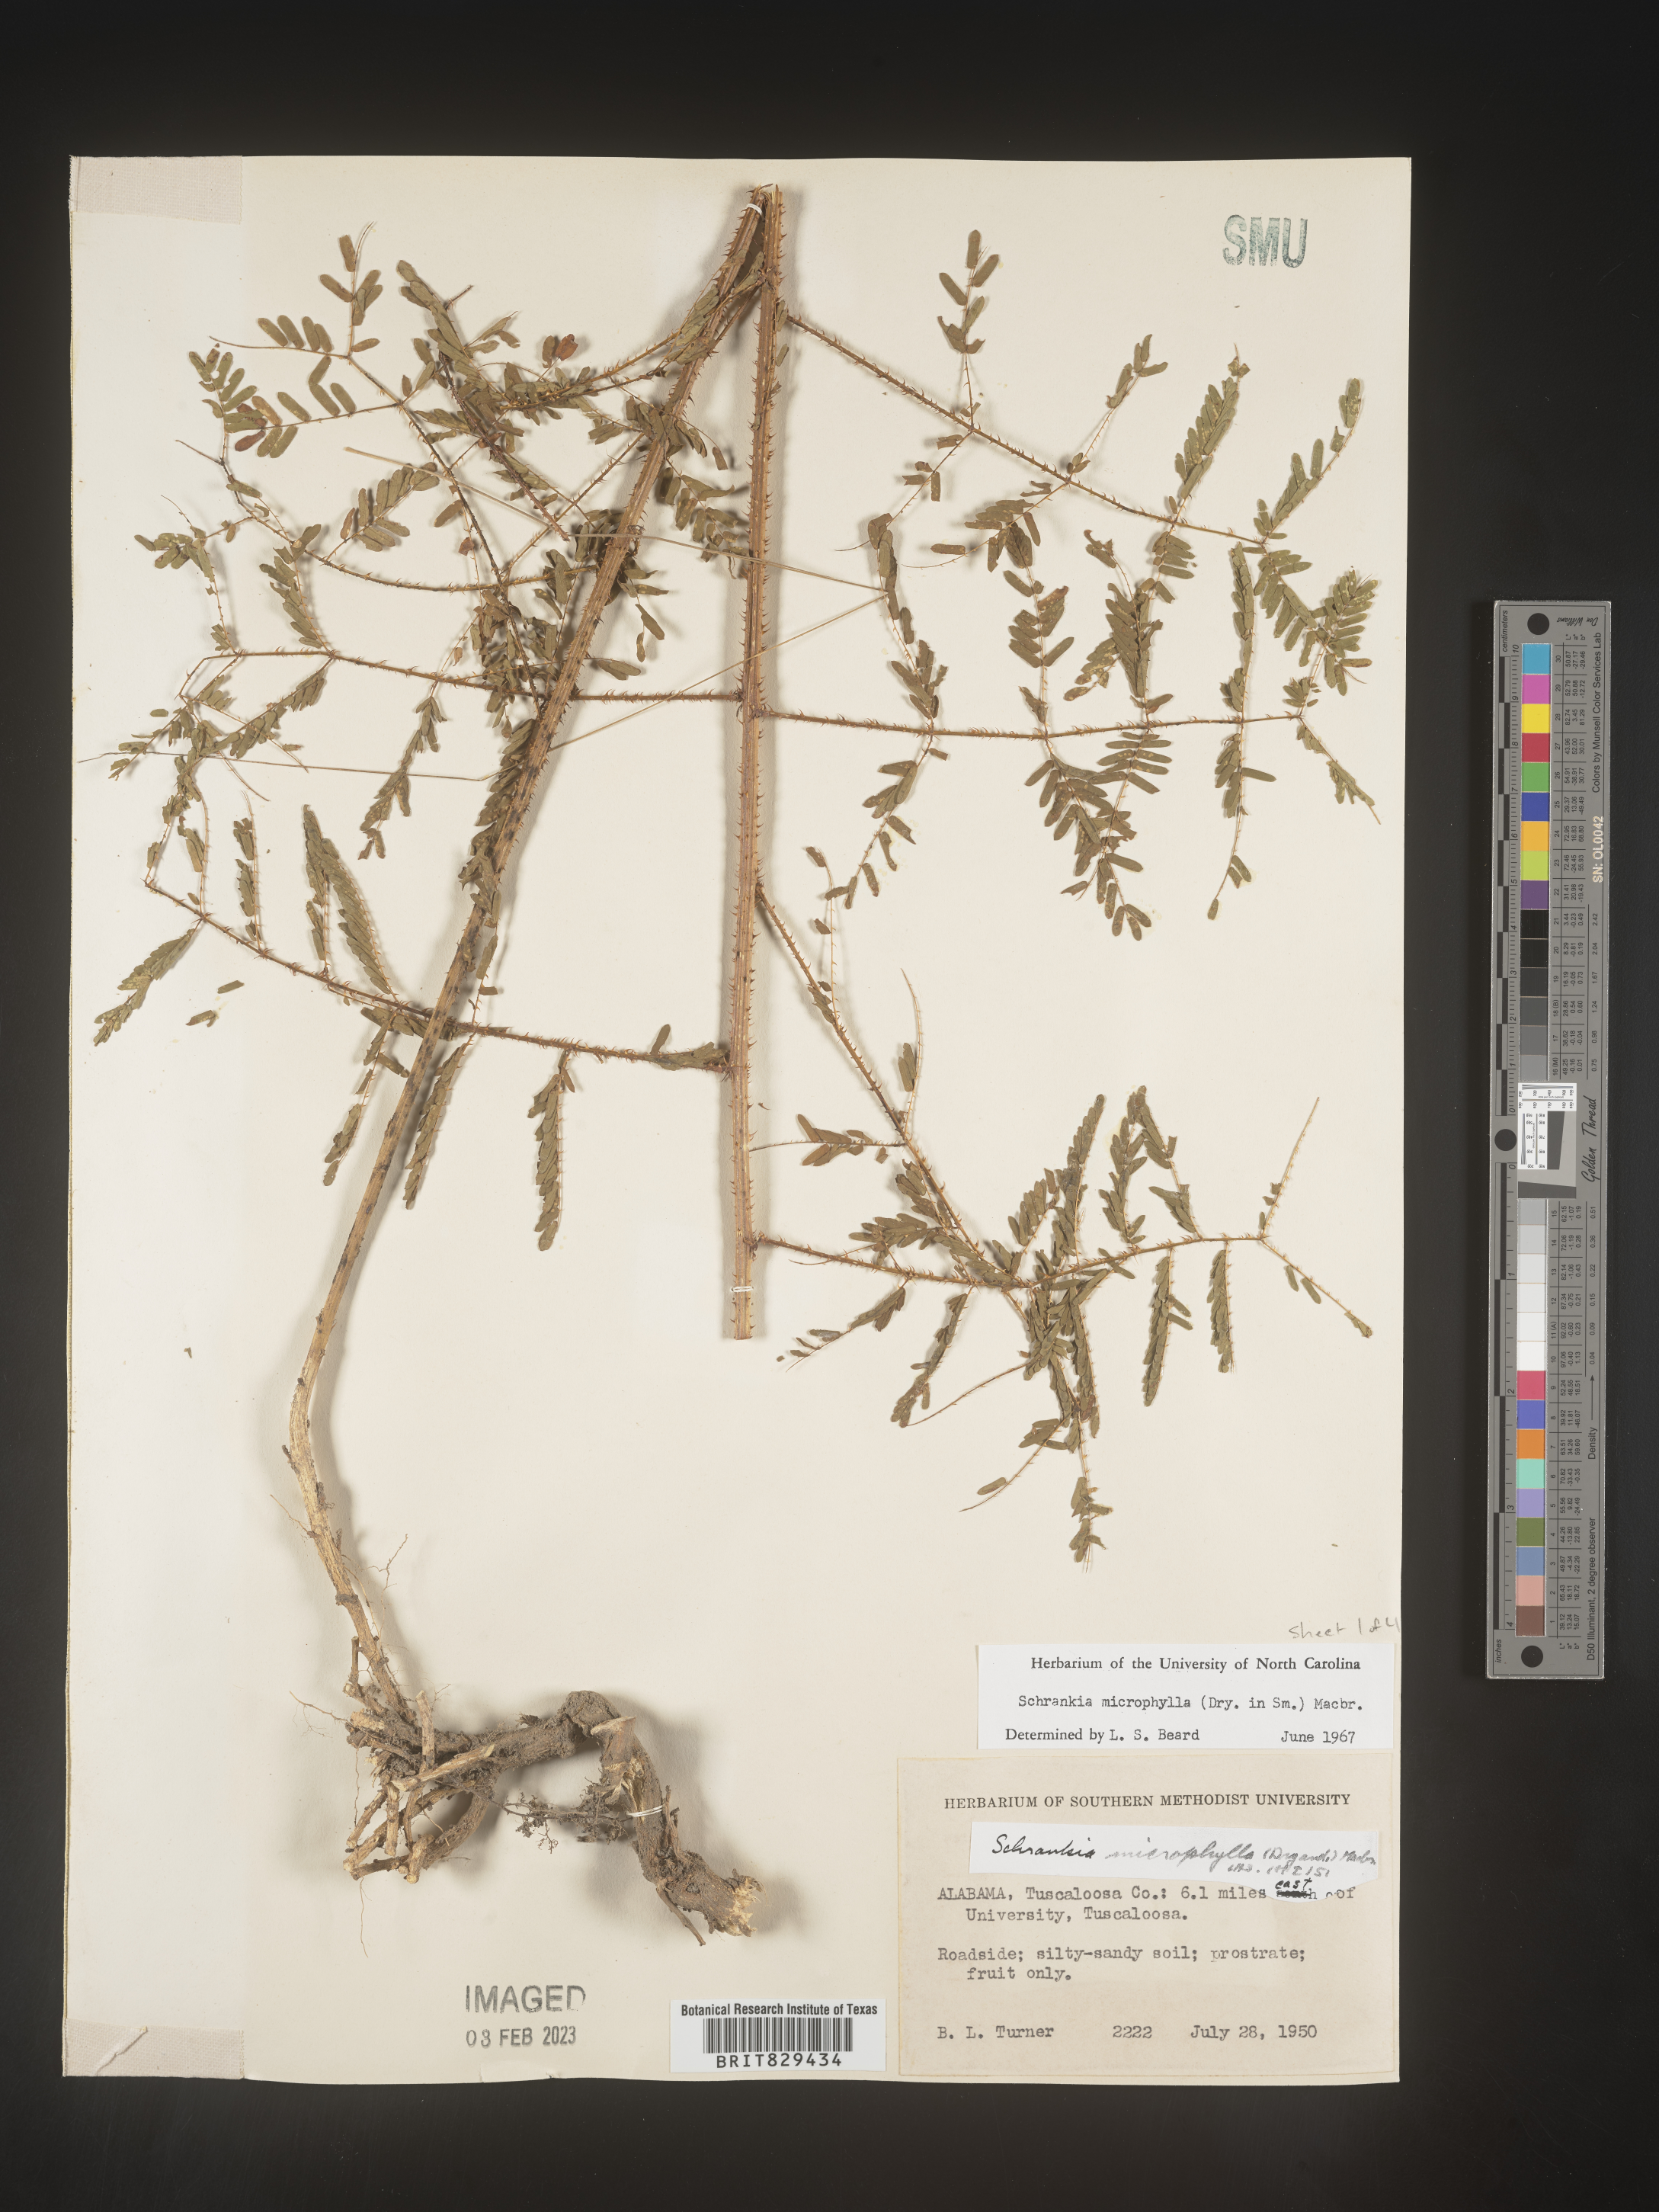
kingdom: Plantae
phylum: Tracheophyta
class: Magnoliopsida
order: Fabales
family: Fabaceae
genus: Mimosa
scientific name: Mimosa quadrivalvis
